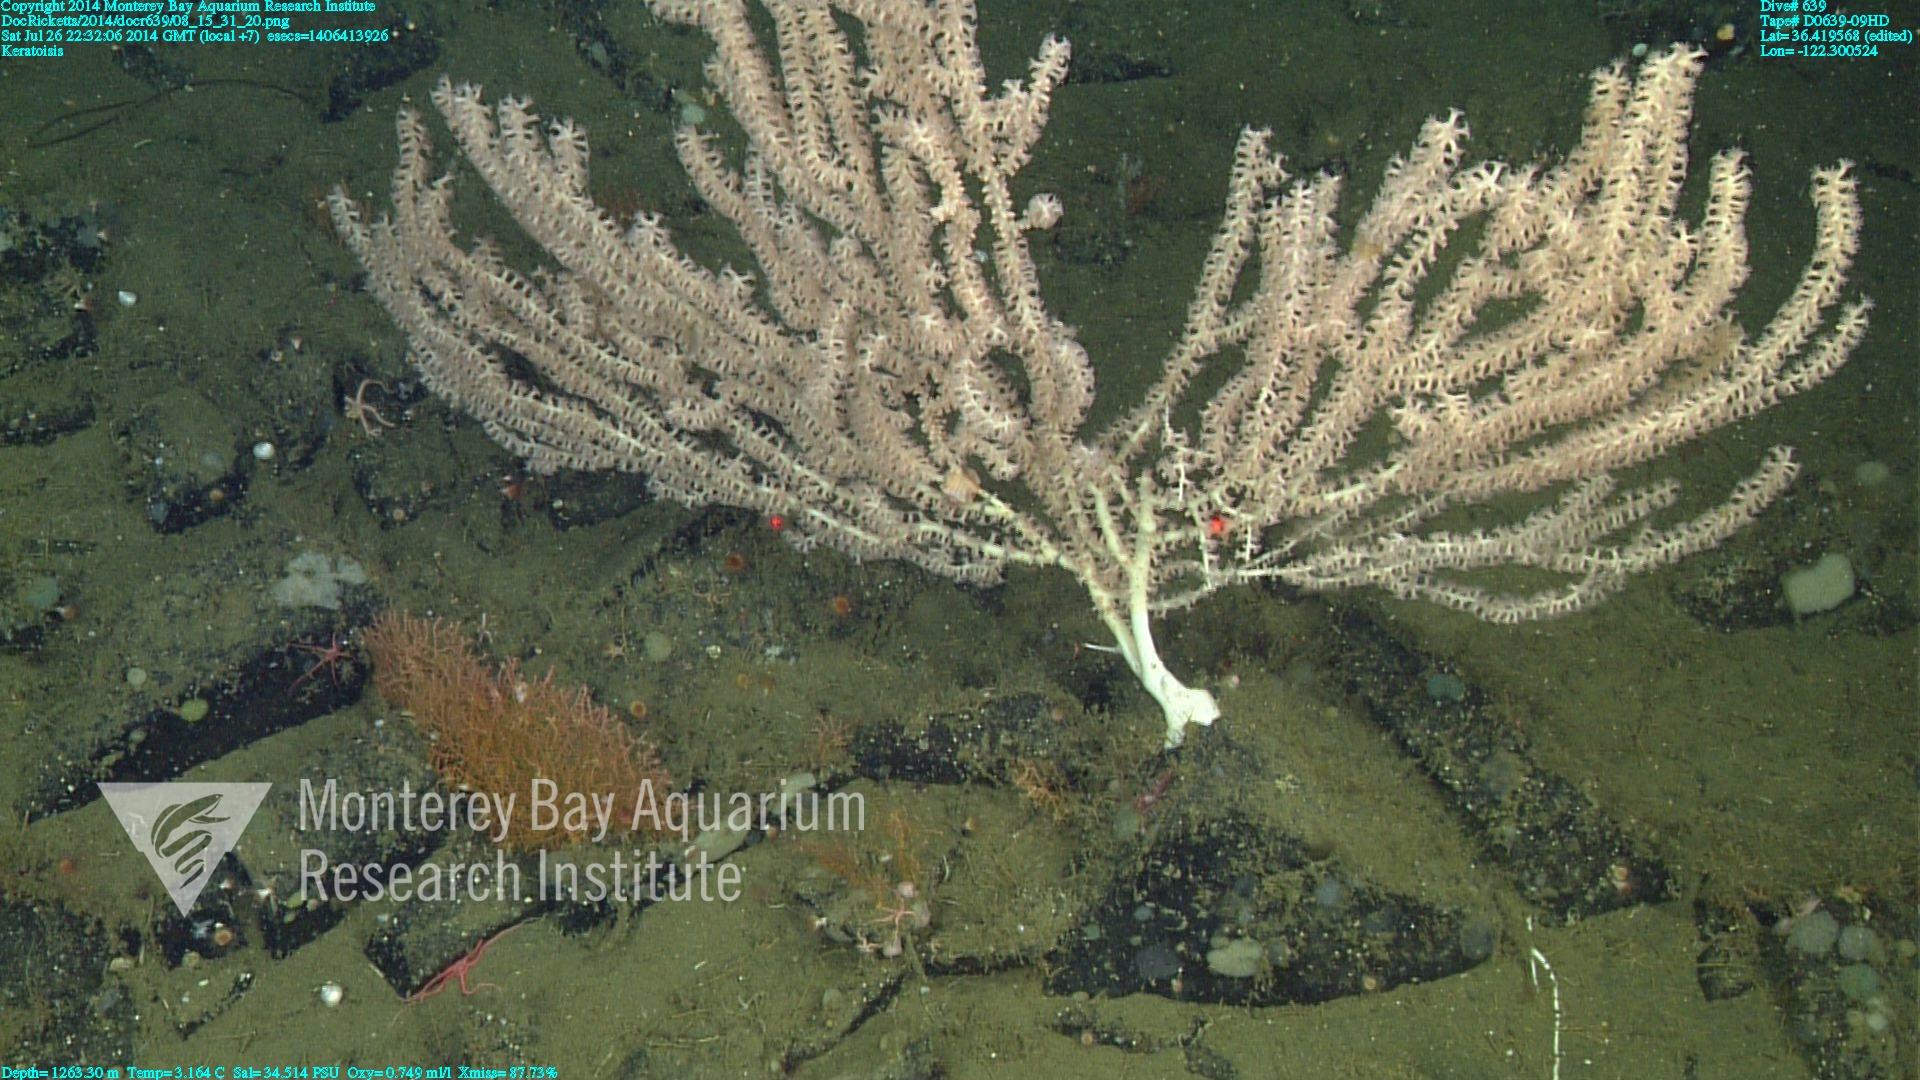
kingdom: Animalia
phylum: Cnidaria
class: Anthozoa
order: Scleralcyonacea
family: Keratoisididae
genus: Keratoisis
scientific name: Keratoisis
